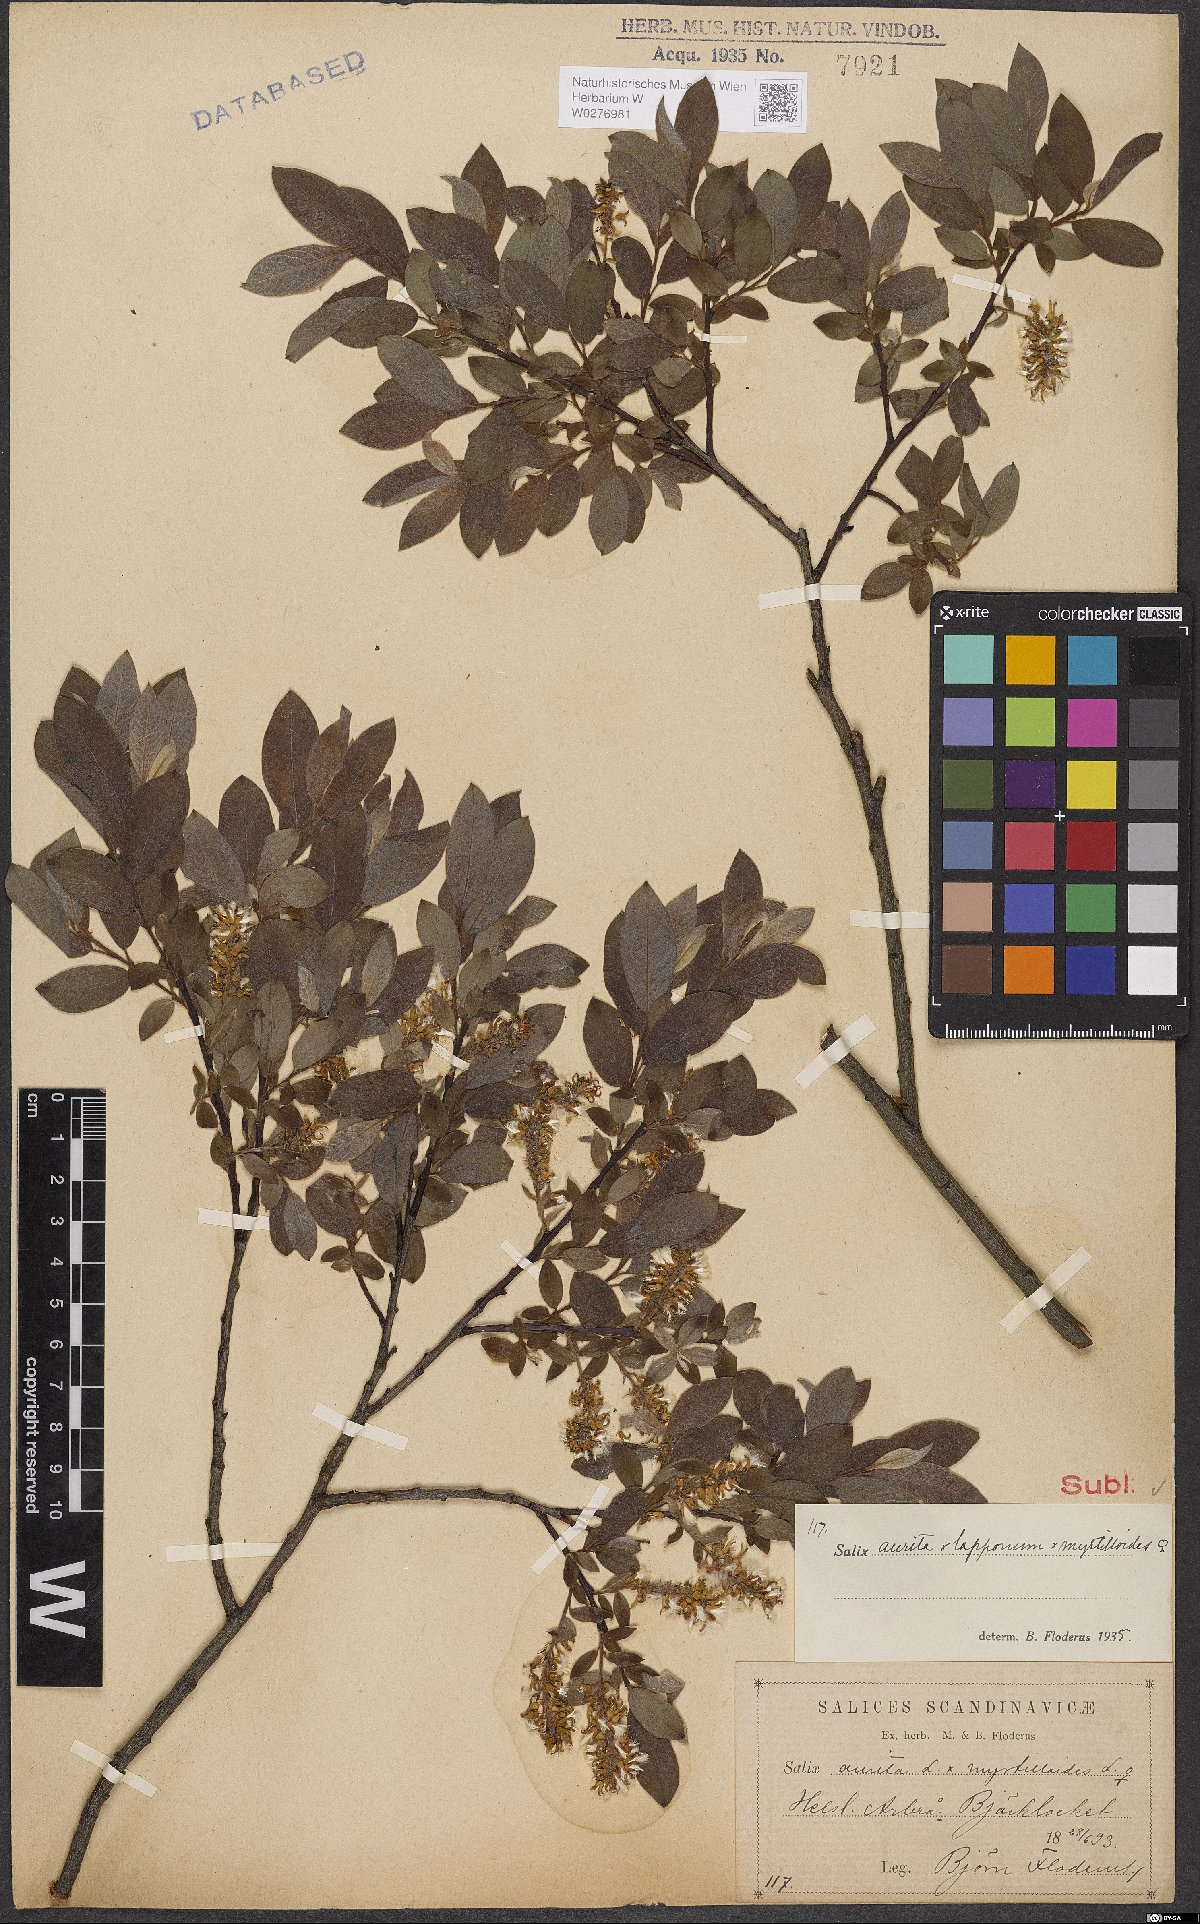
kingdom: Plantae
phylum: Tracheophyta
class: Magnoliopsida
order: Malpighiales
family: Salicaceae
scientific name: Salicaceae
